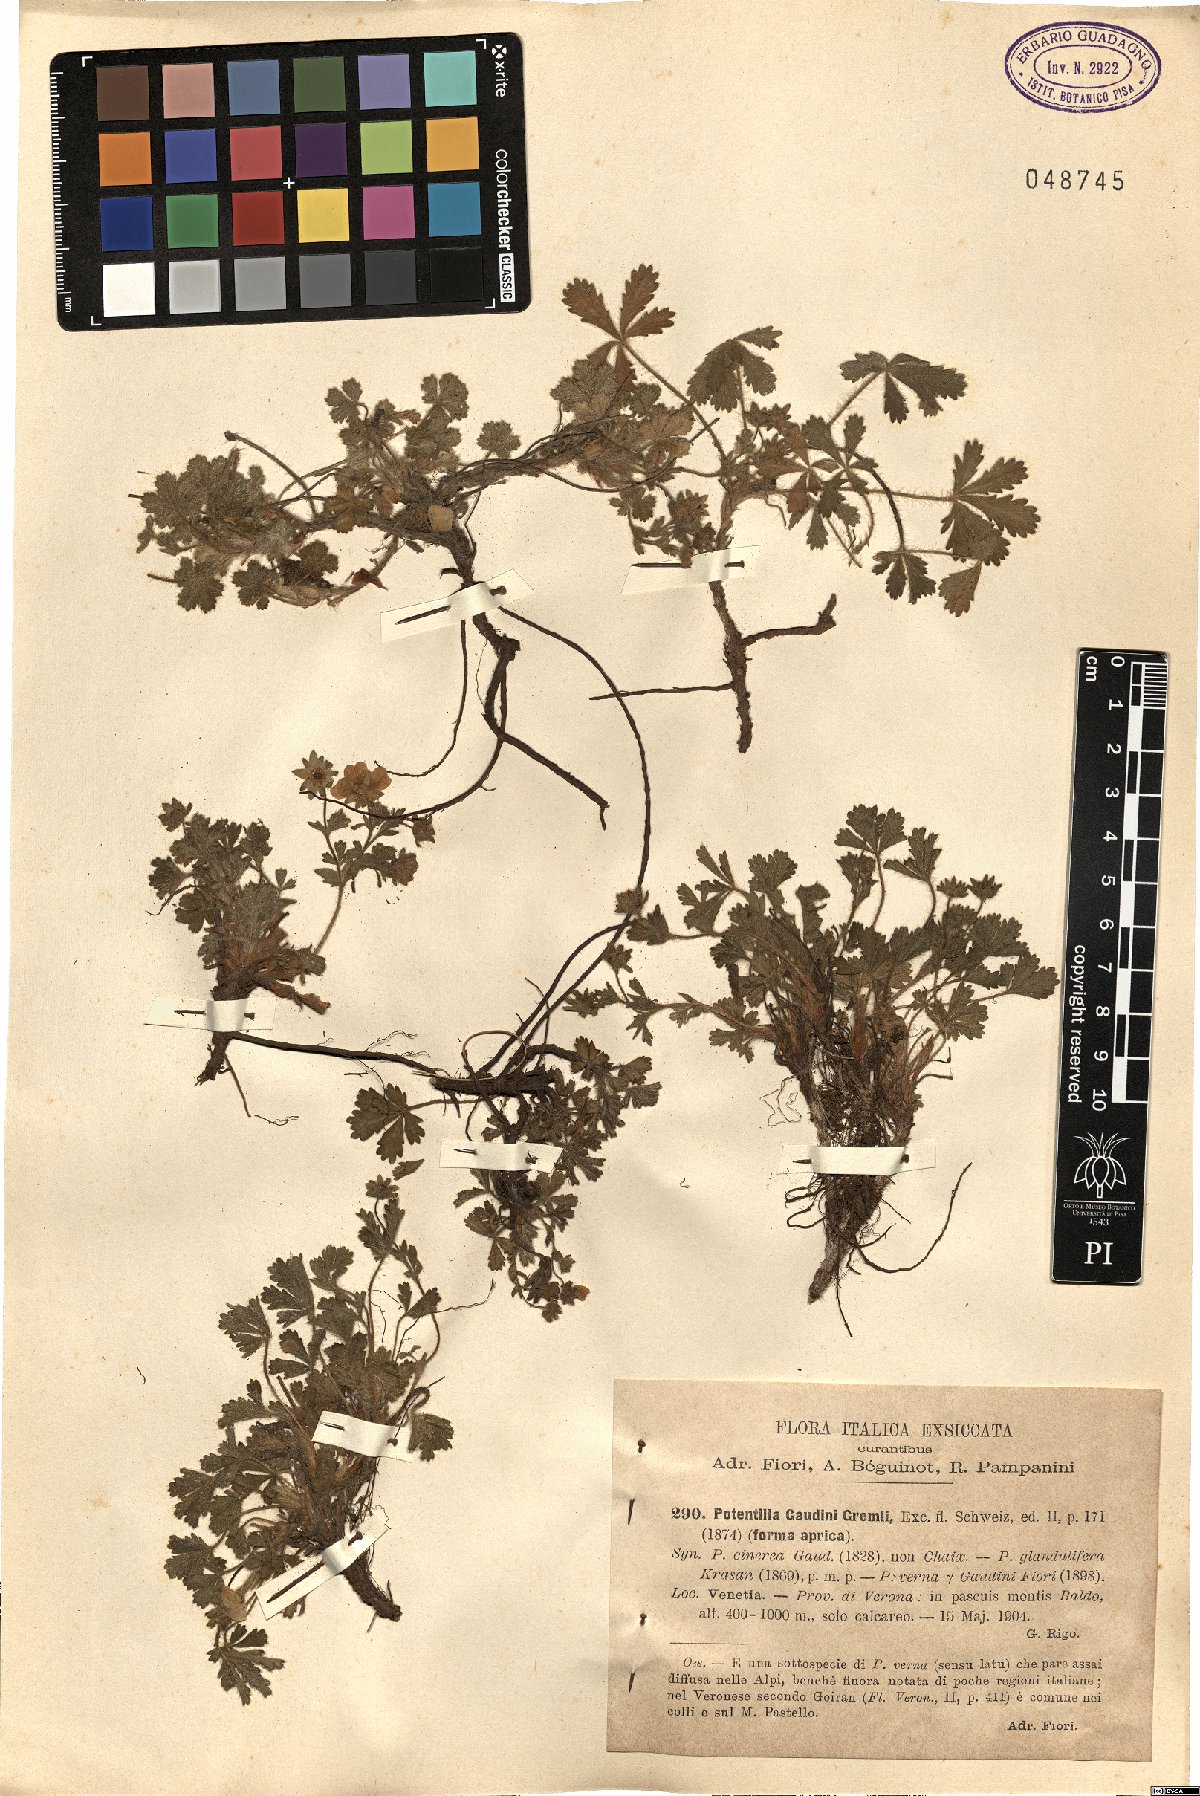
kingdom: Plantae
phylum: Tracheophyta
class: Magnoliopsida
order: Rosales
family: Rosaceae
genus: Potentilla
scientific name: Potentilla pusilla
